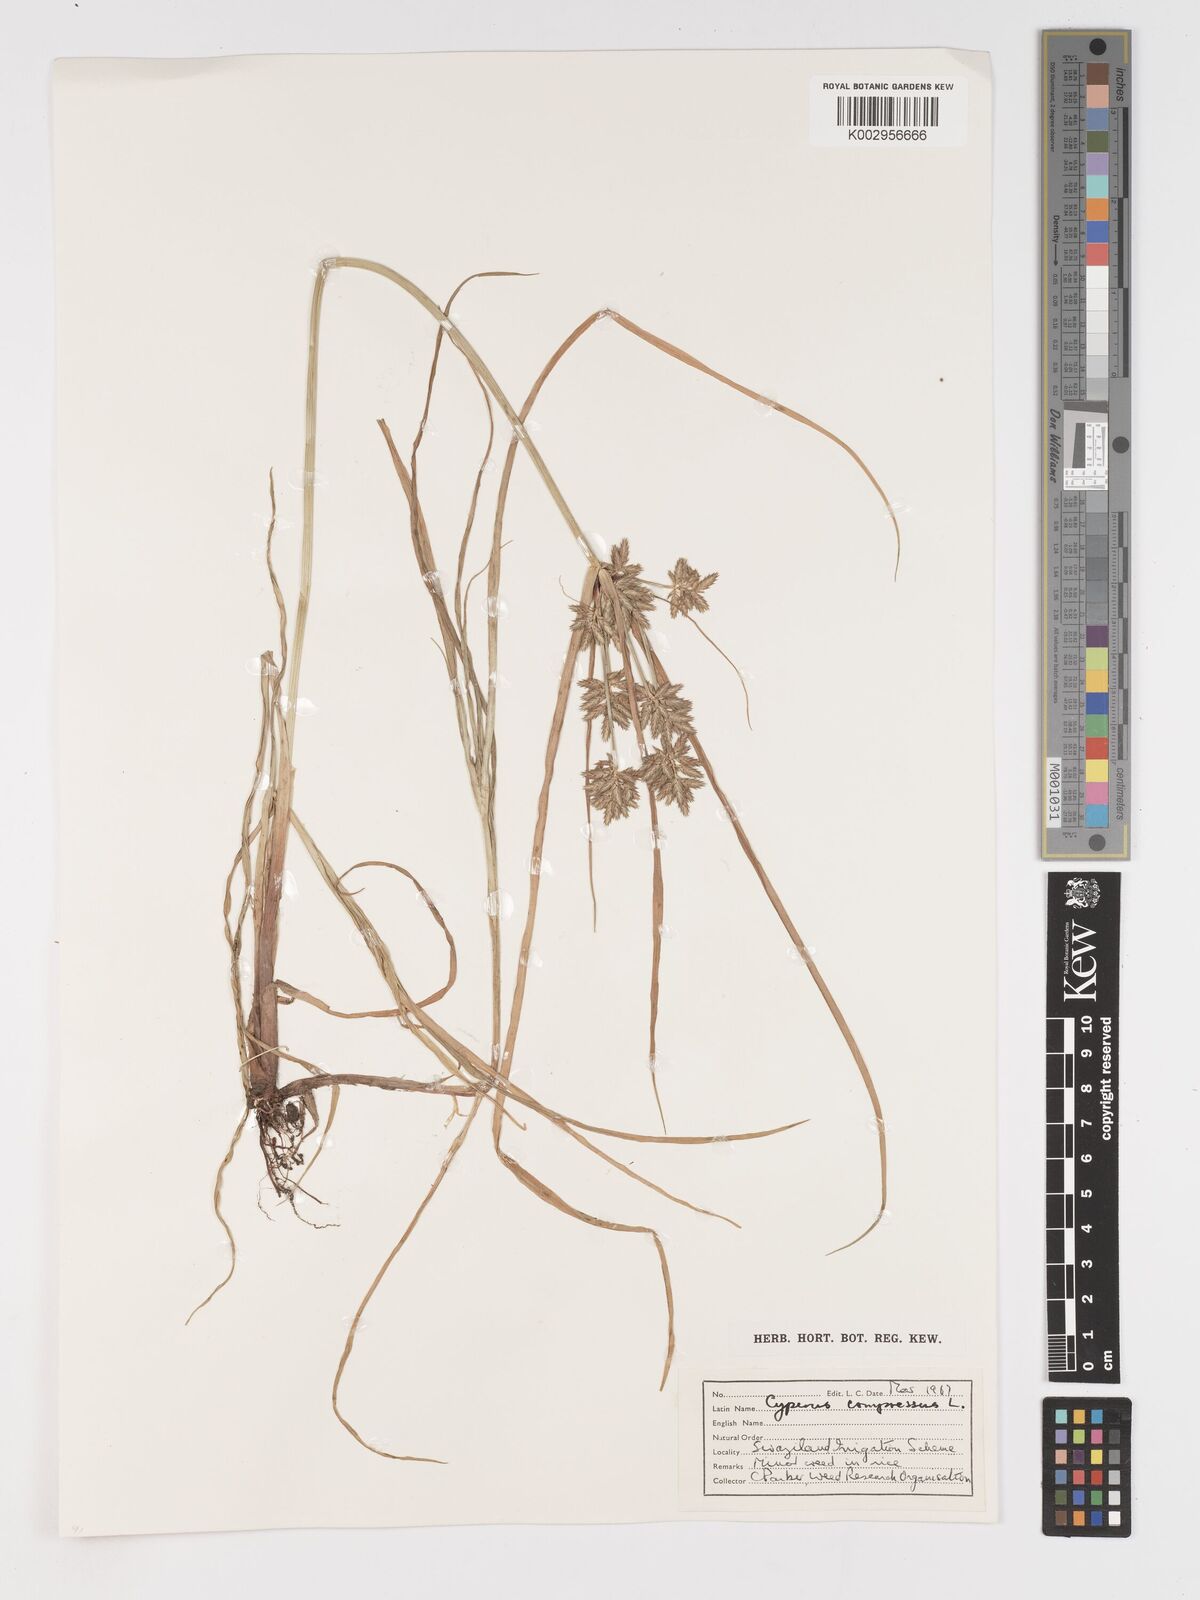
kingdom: Plantae
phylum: Tracheophyta
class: Liliopsida
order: Poales
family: Cyperaceae
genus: Cyperus
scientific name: Cyperus compressus
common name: Poorland flatsedge
